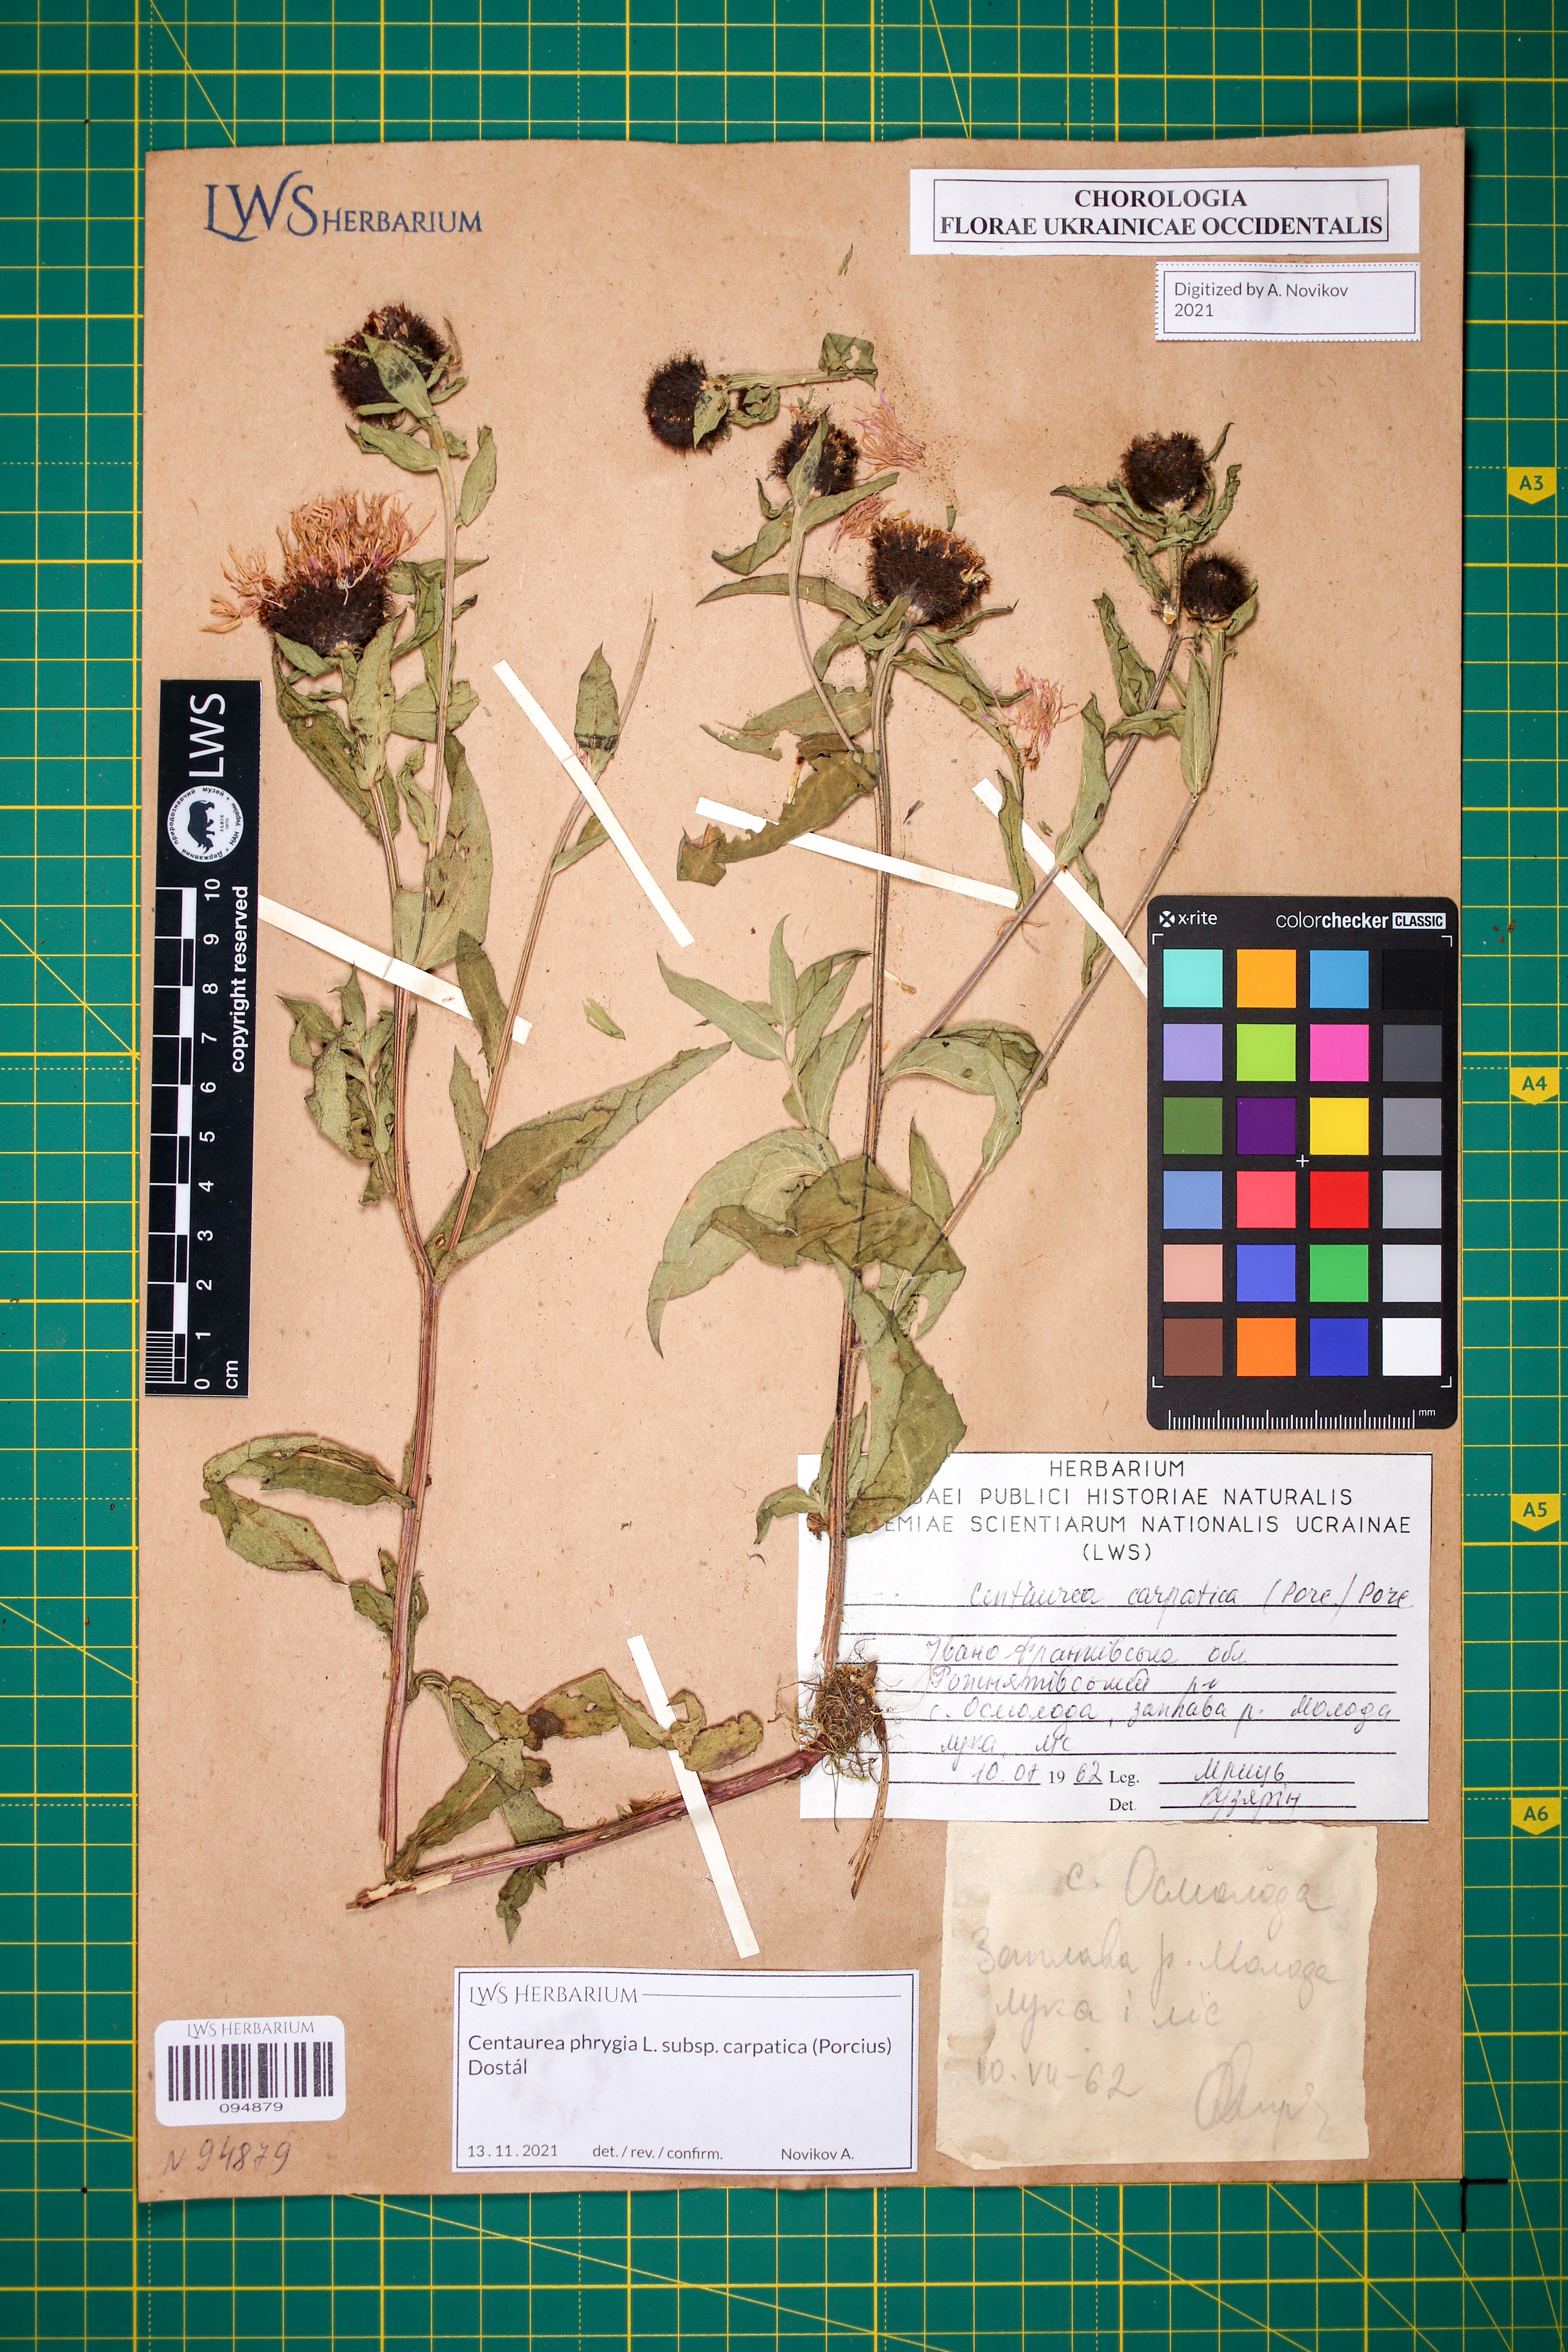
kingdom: Plantae
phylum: Tracheophyta
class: Magnoliopsida
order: Asterales
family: Asteraceae
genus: Centaurea
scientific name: Centaurea phrygia
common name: Wig knapweed
